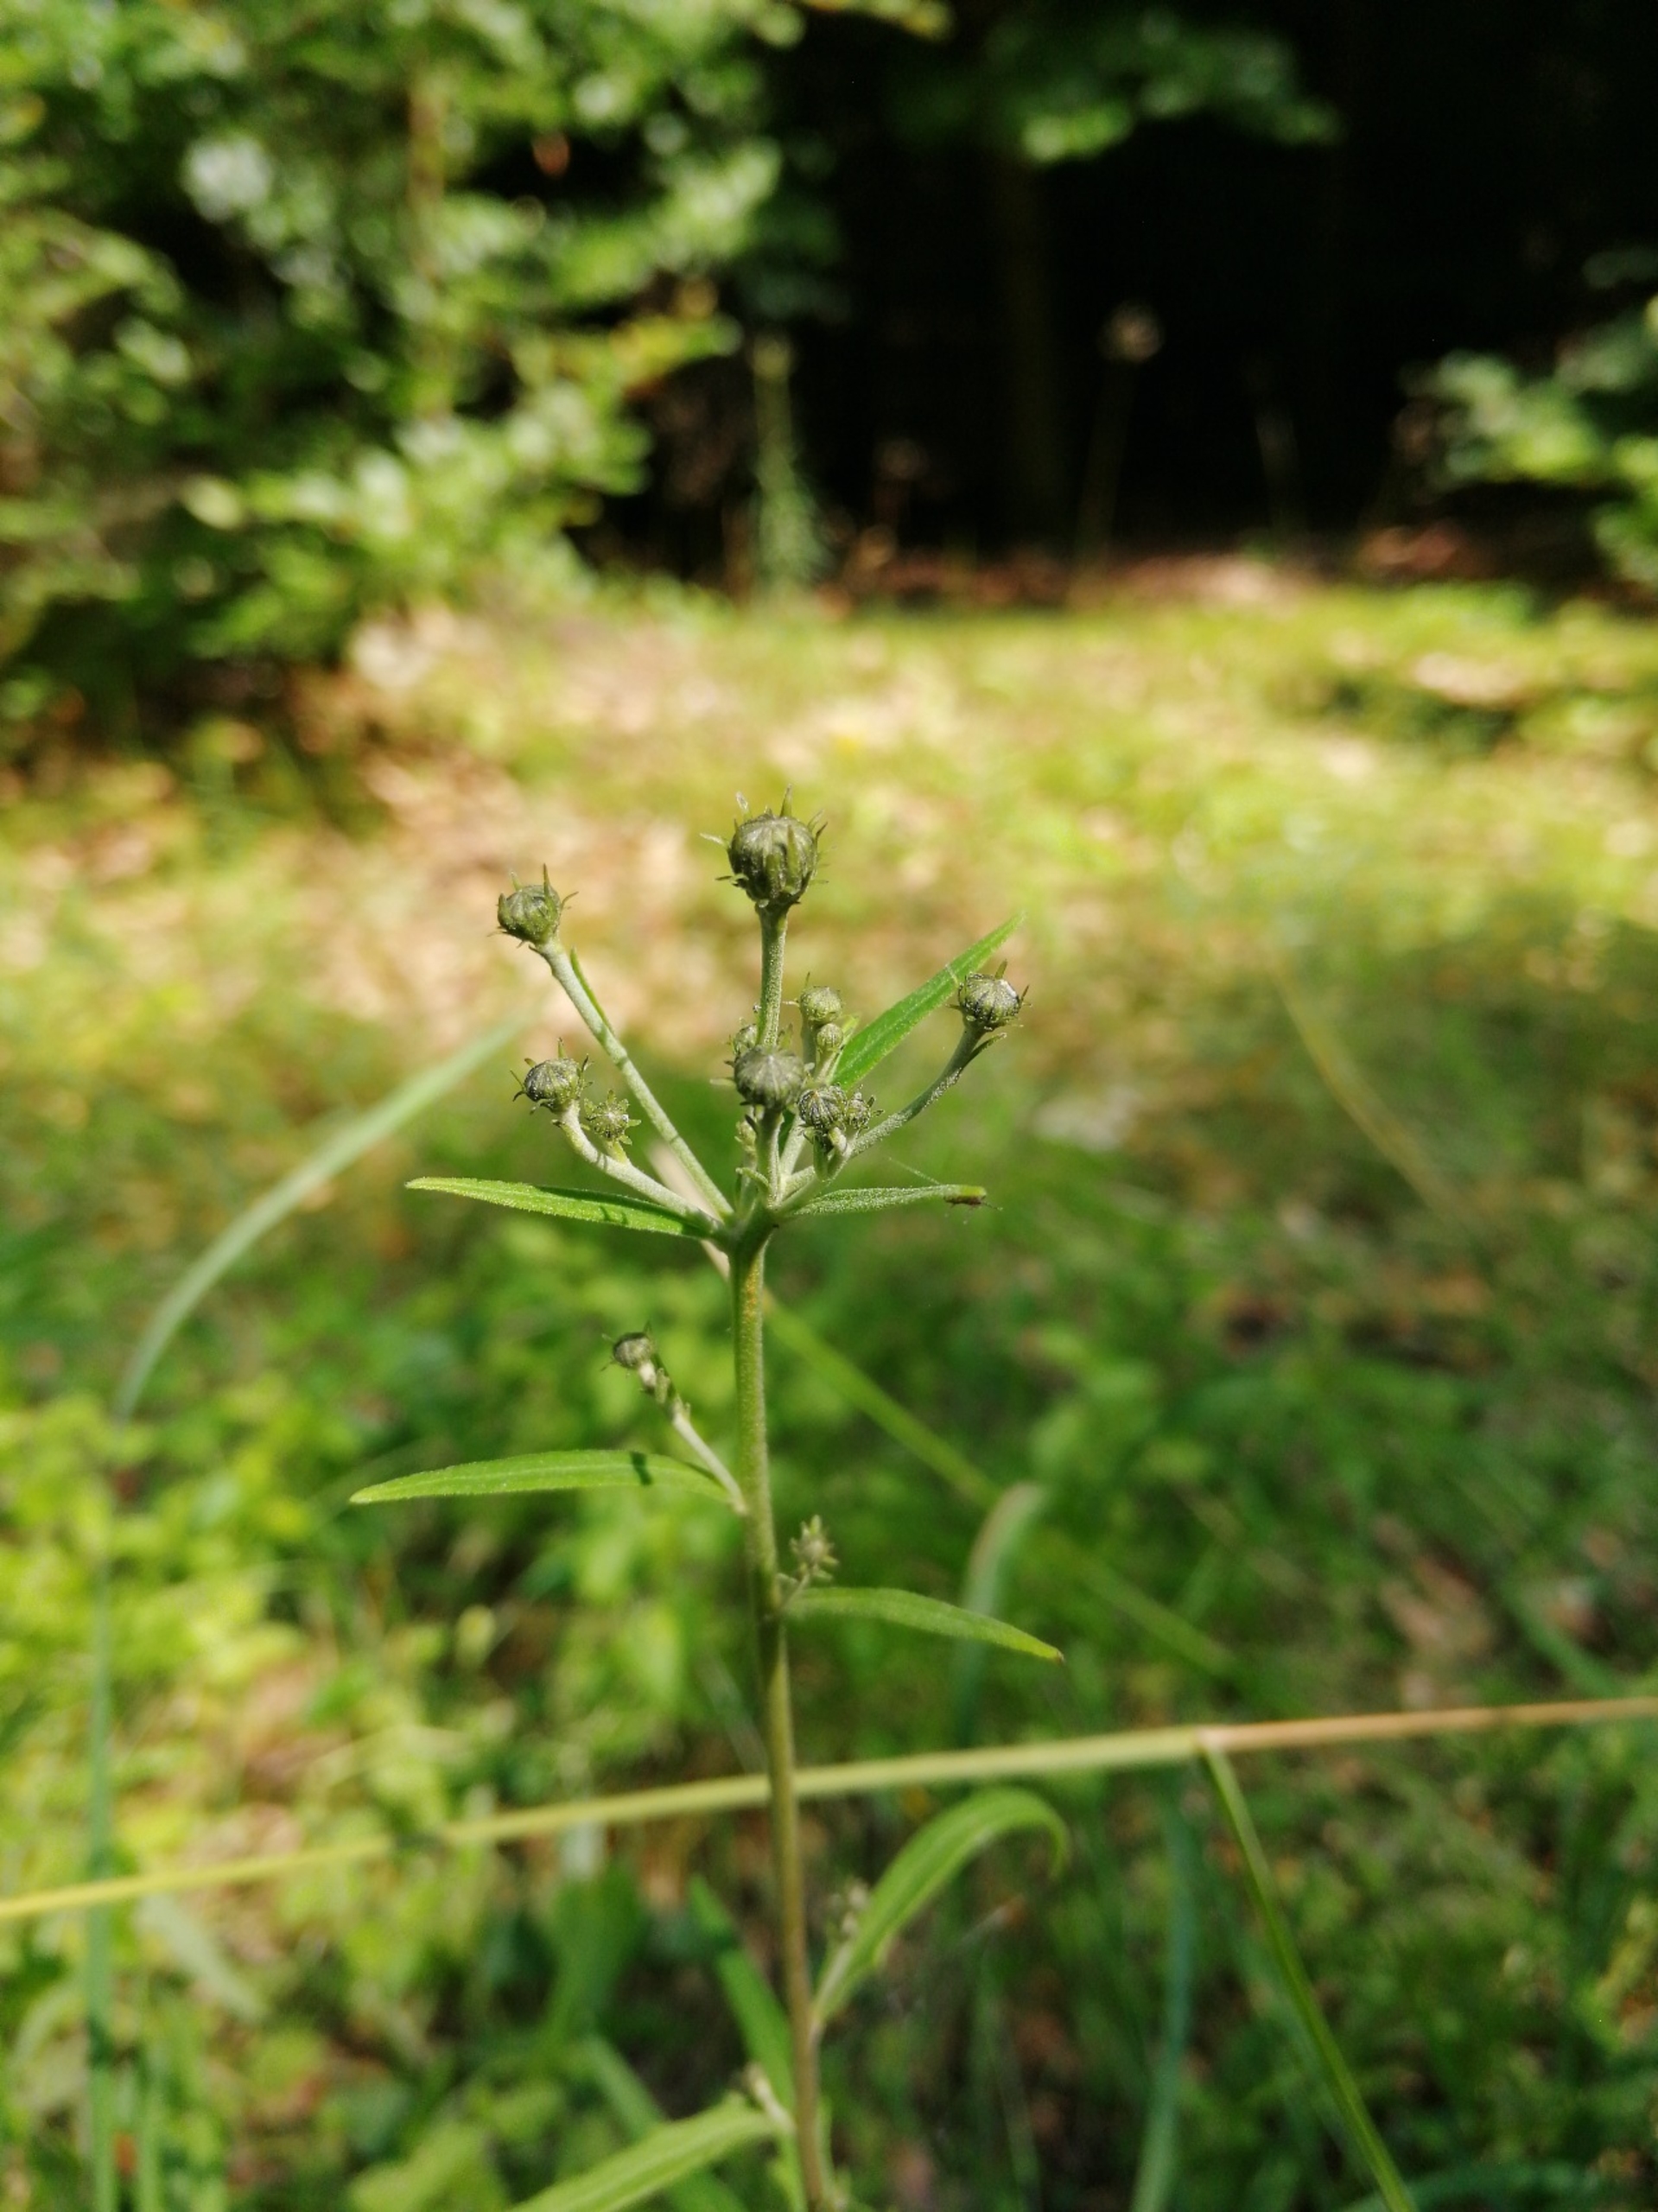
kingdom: Plantae
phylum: Tracheophyta
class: Magnoliopsida
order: Asterales
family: Asteraceae
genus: Hieracium
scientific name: Hieracium umbellatum
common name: Smalbladet høgeurt
